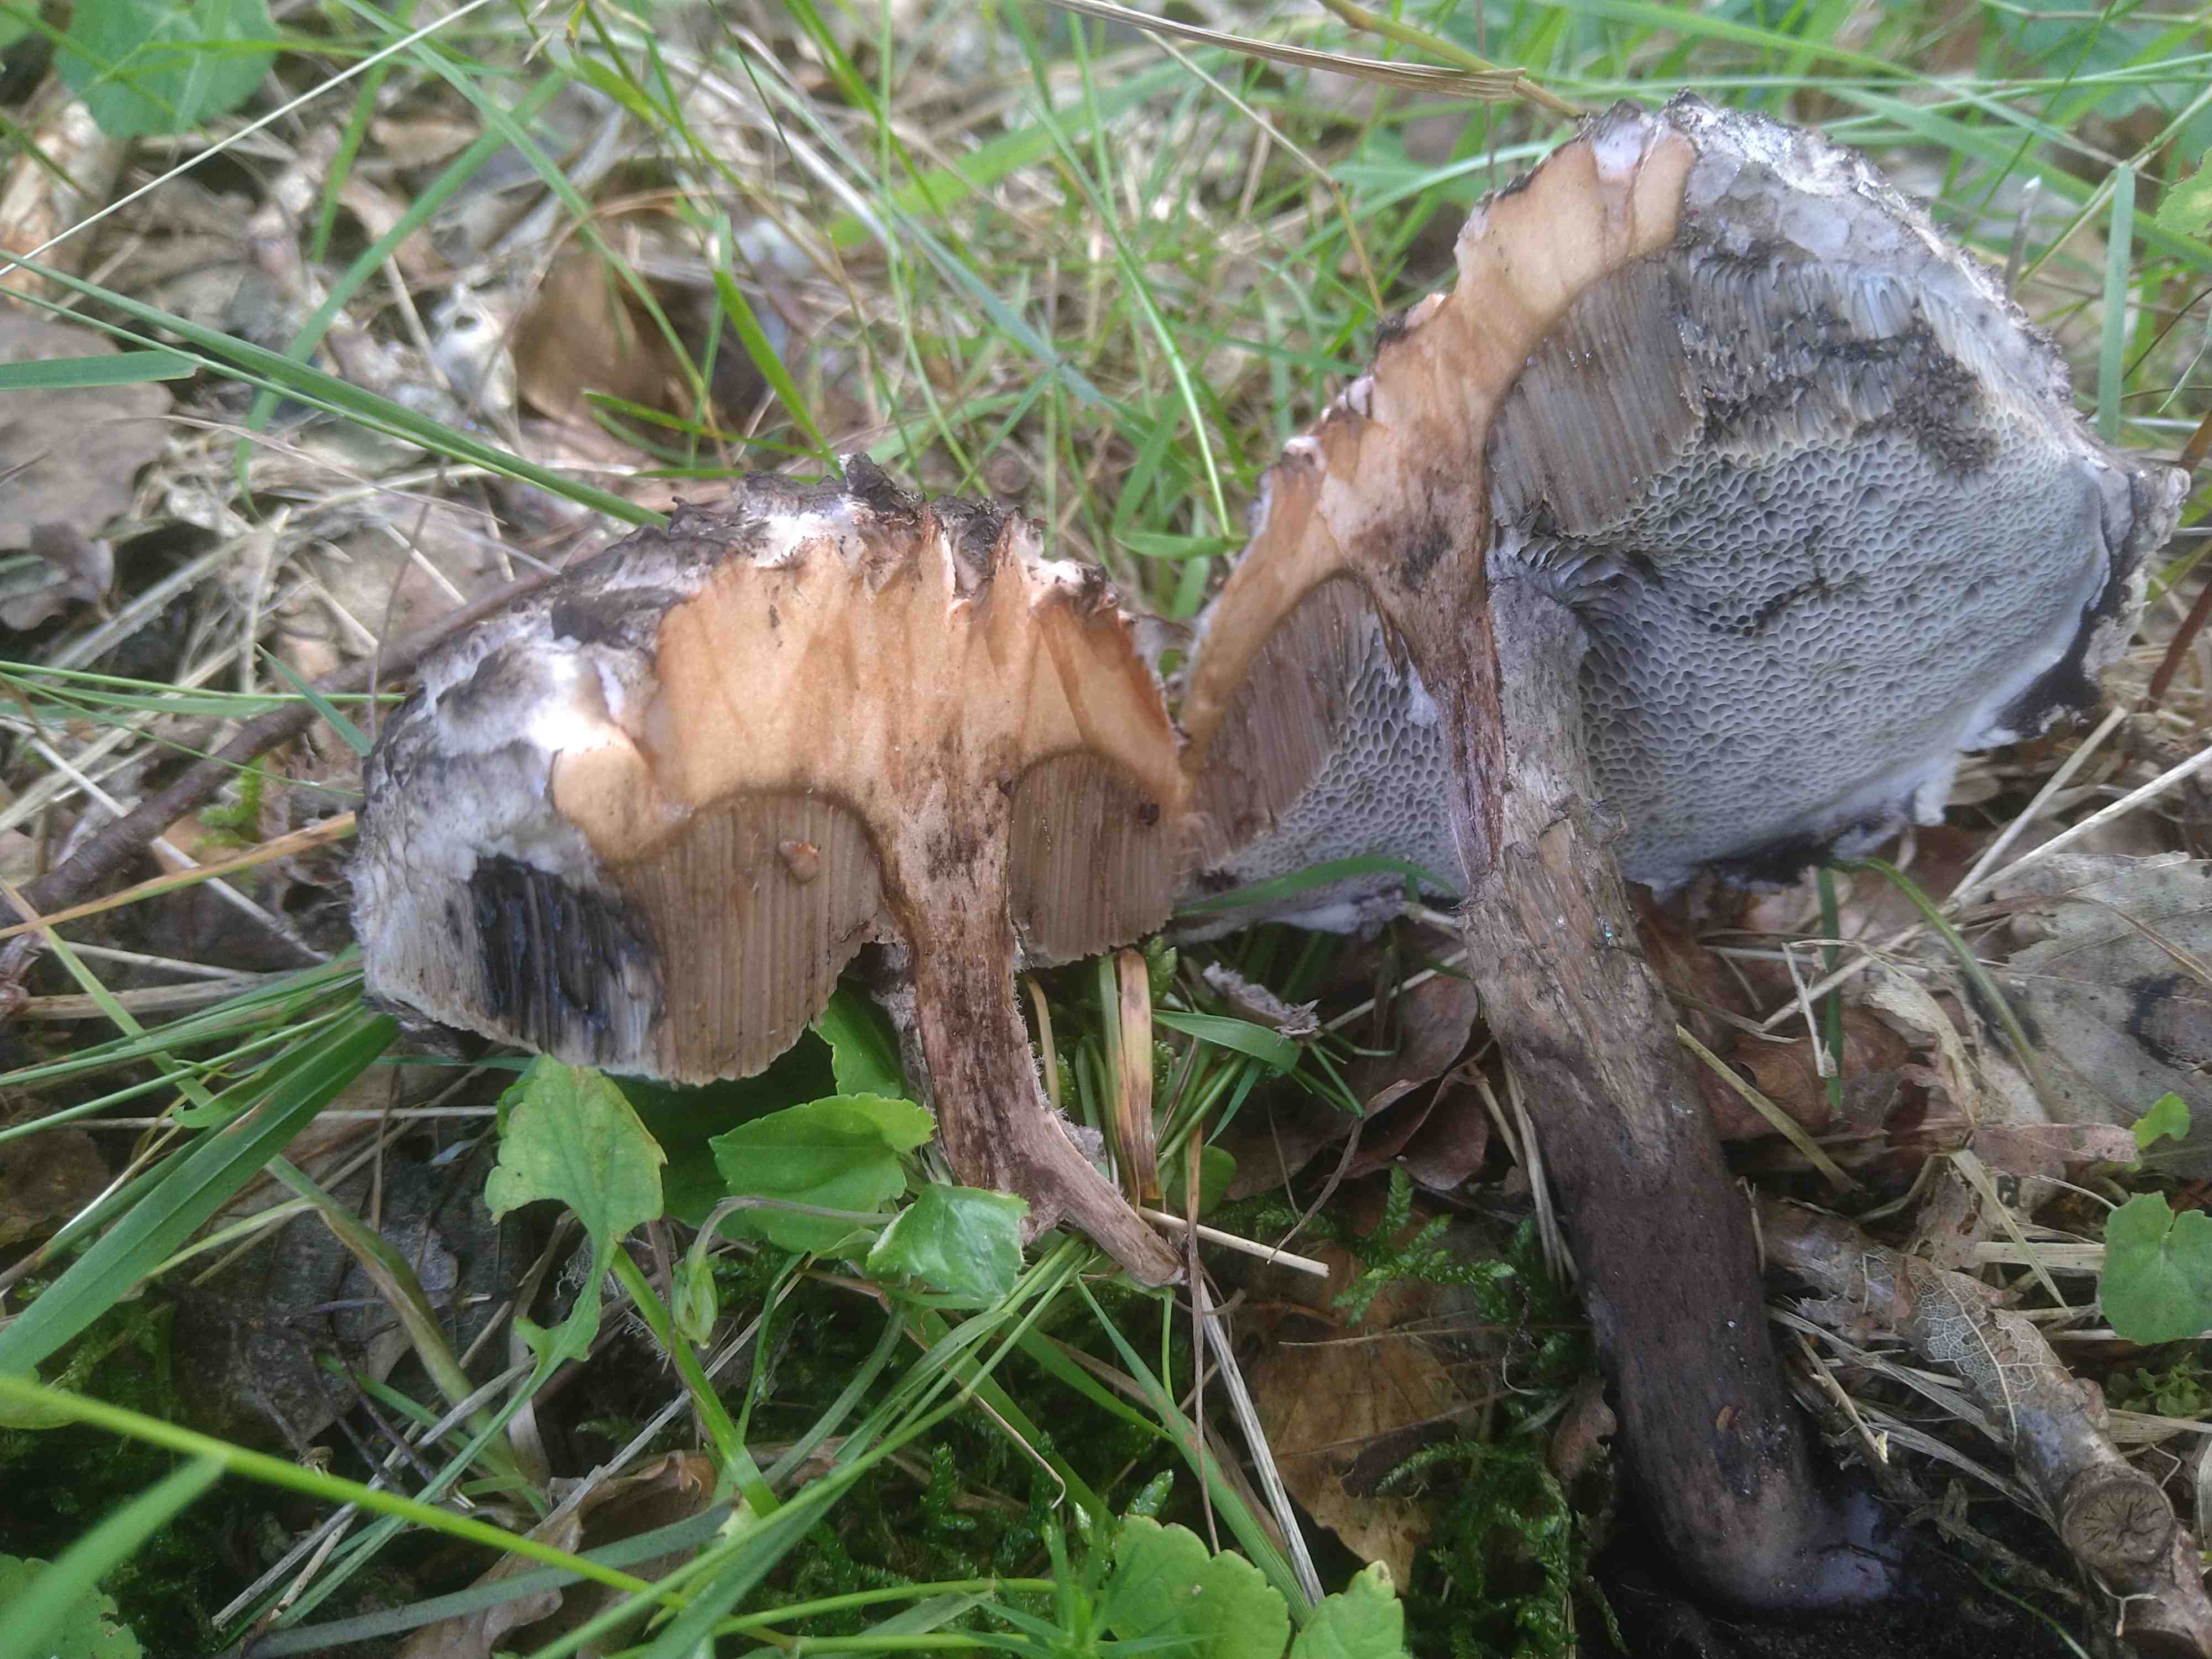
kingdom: Fungi
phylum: Basidiomycota
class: Agaricomycetes
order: Boletales
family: Boletaceae
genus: Strobilomyces
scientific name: Strobilomyces strobilaceus
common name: koglerørhat
